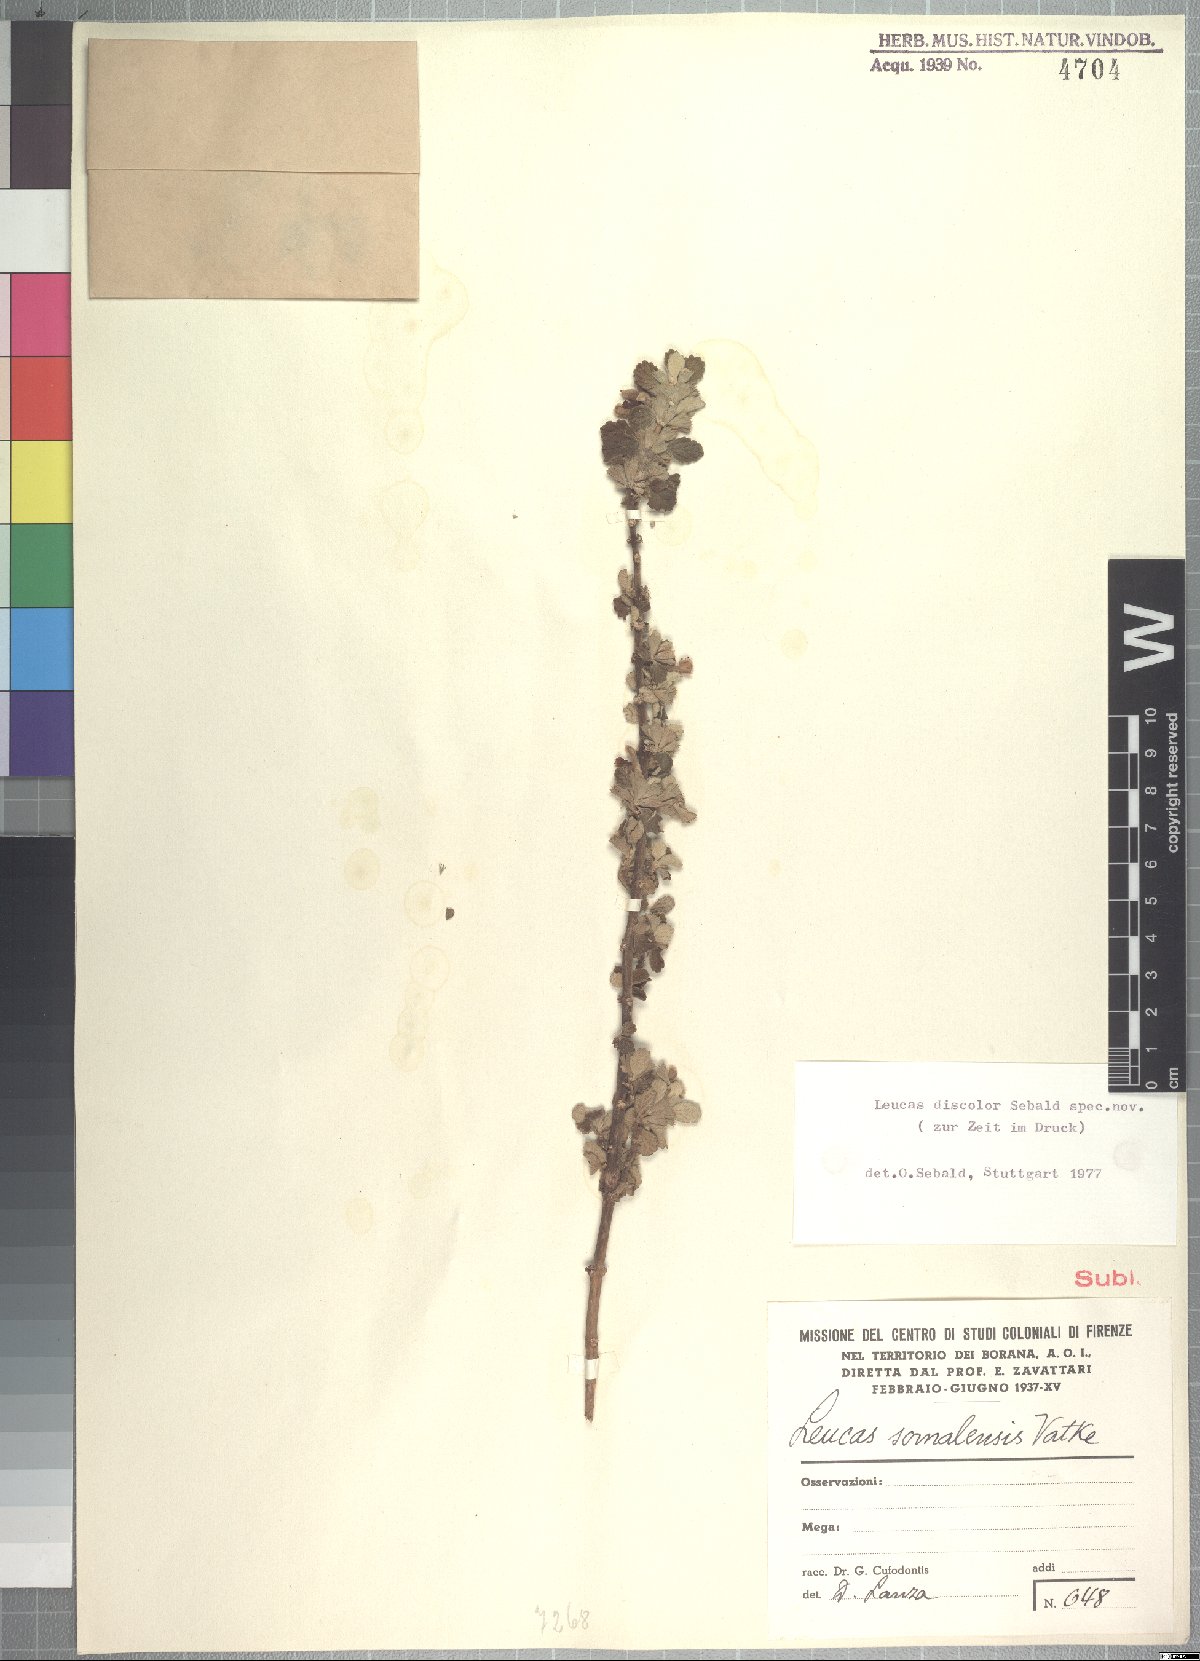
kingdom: Plantae
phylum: Tracheophyta
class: Magnoliopsida
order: Lamiales
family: Lamiaceae
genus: Leucas
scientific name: Leucas discolor
